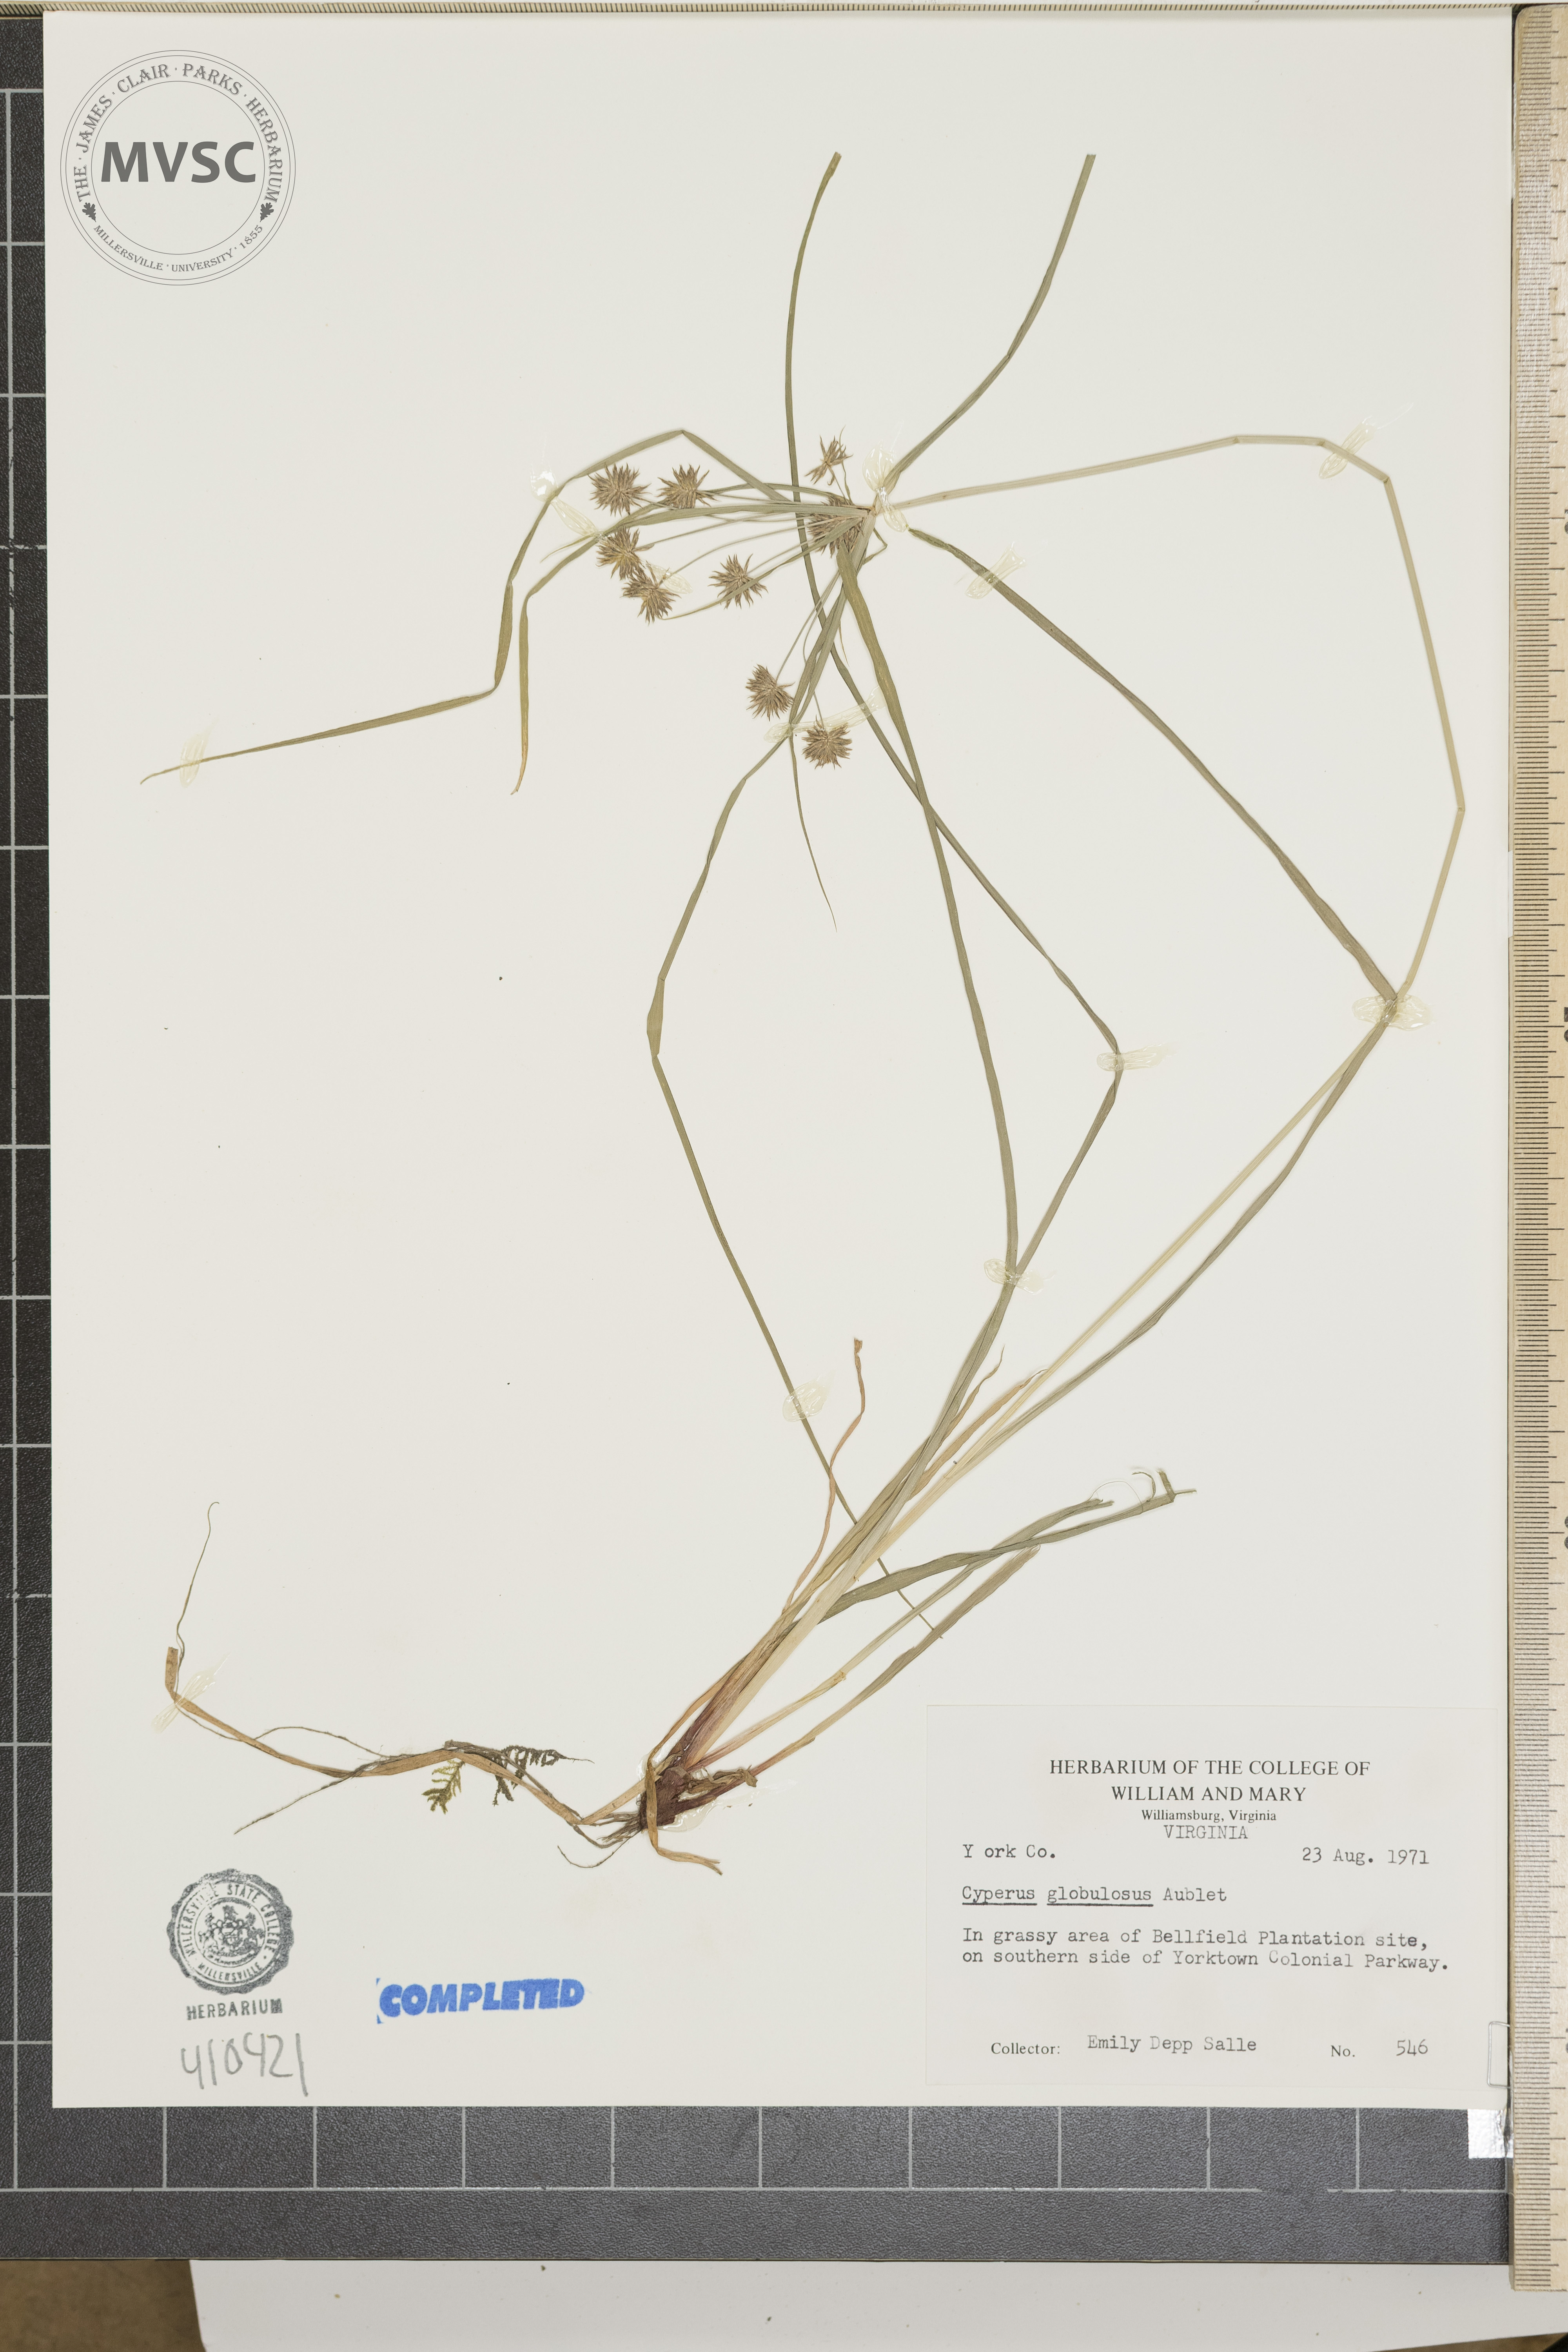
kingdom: Plantae
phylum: Tracheophyta
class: Liliopsida
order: Poales
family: Cyperaceae
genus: Cyperus
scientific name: Cyperus luzulae
